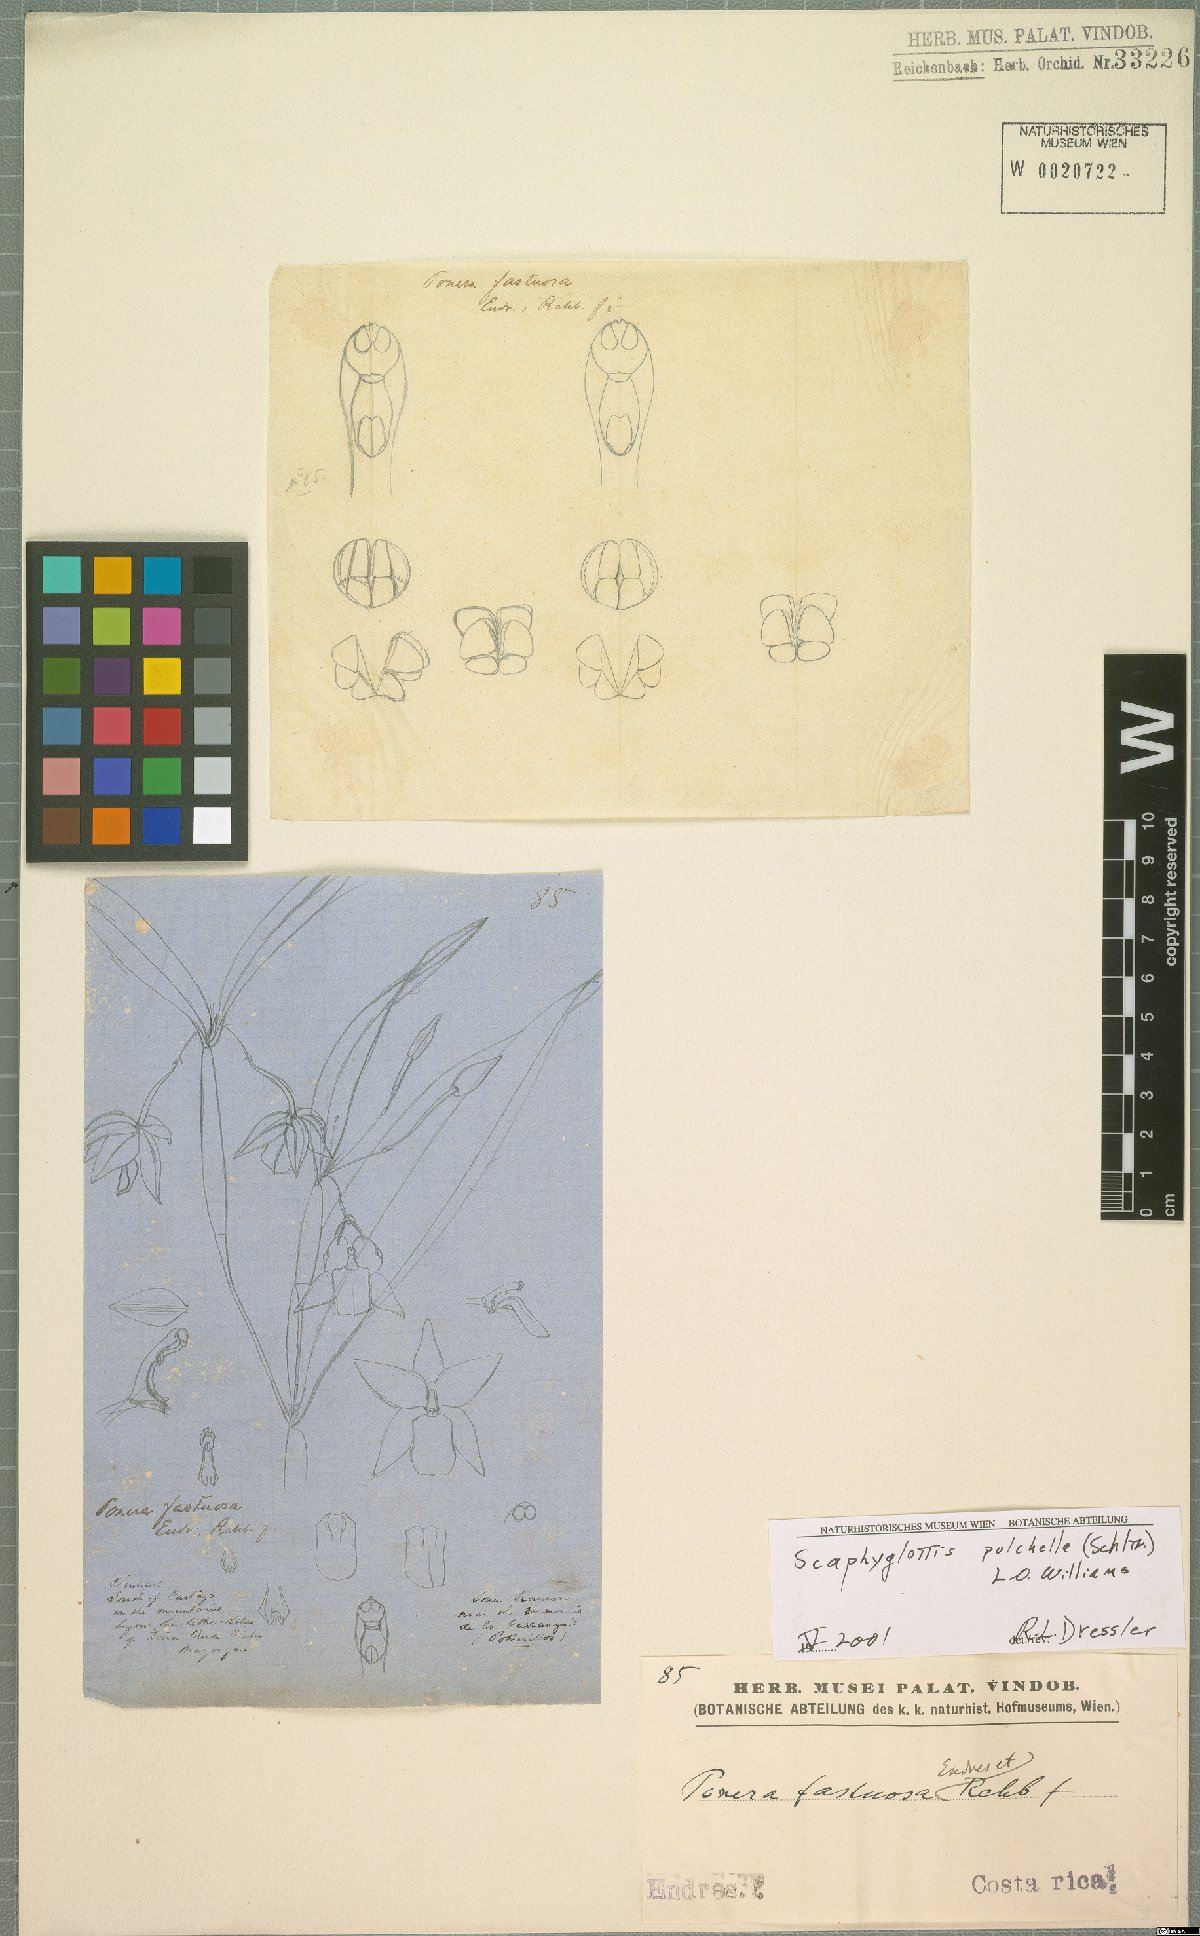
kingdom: Plantae
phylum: Tracheophyta
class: Liliopsida
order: Asparagales
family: Orchidaceae
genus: Scaphyglottis
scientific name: Scaphyglottis pulchella
